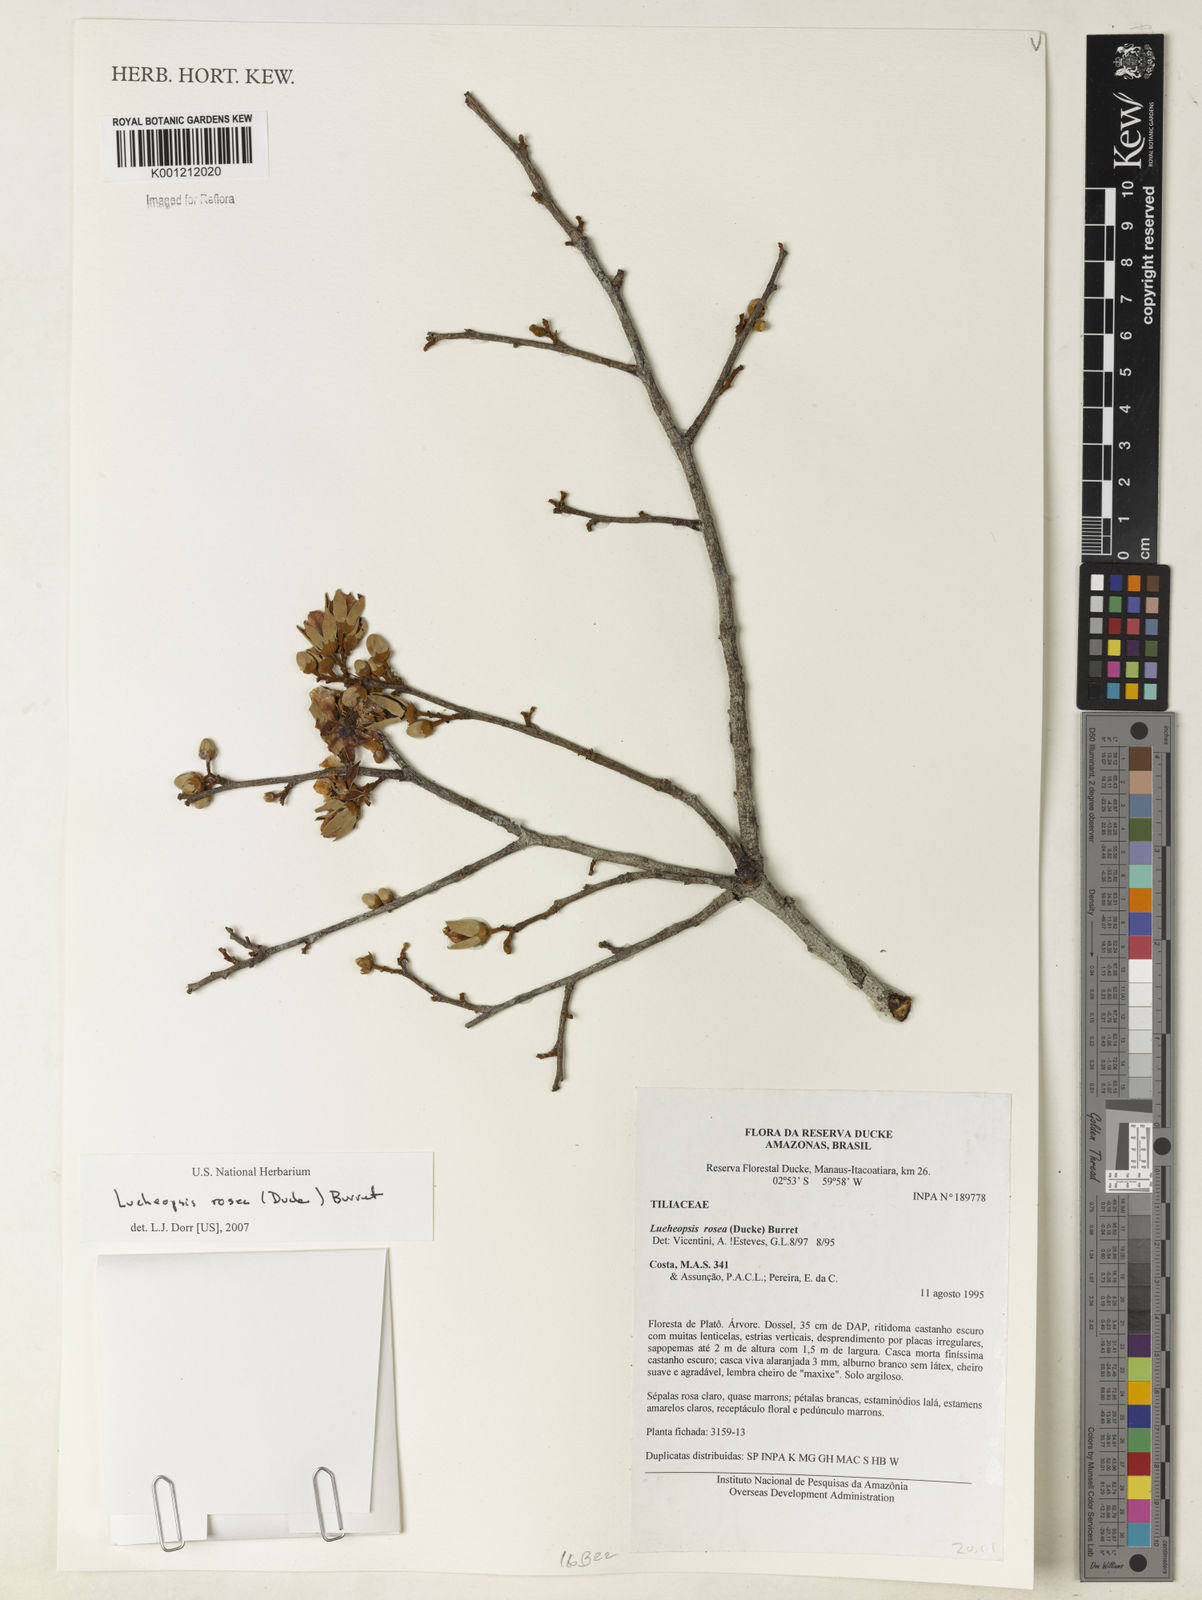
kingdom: Plantae
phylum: Tracheophyta
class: Magnoliopsida
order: Malvales
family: Malvaceae
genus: Lueheopsis
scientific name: Lueheopsis rosea
